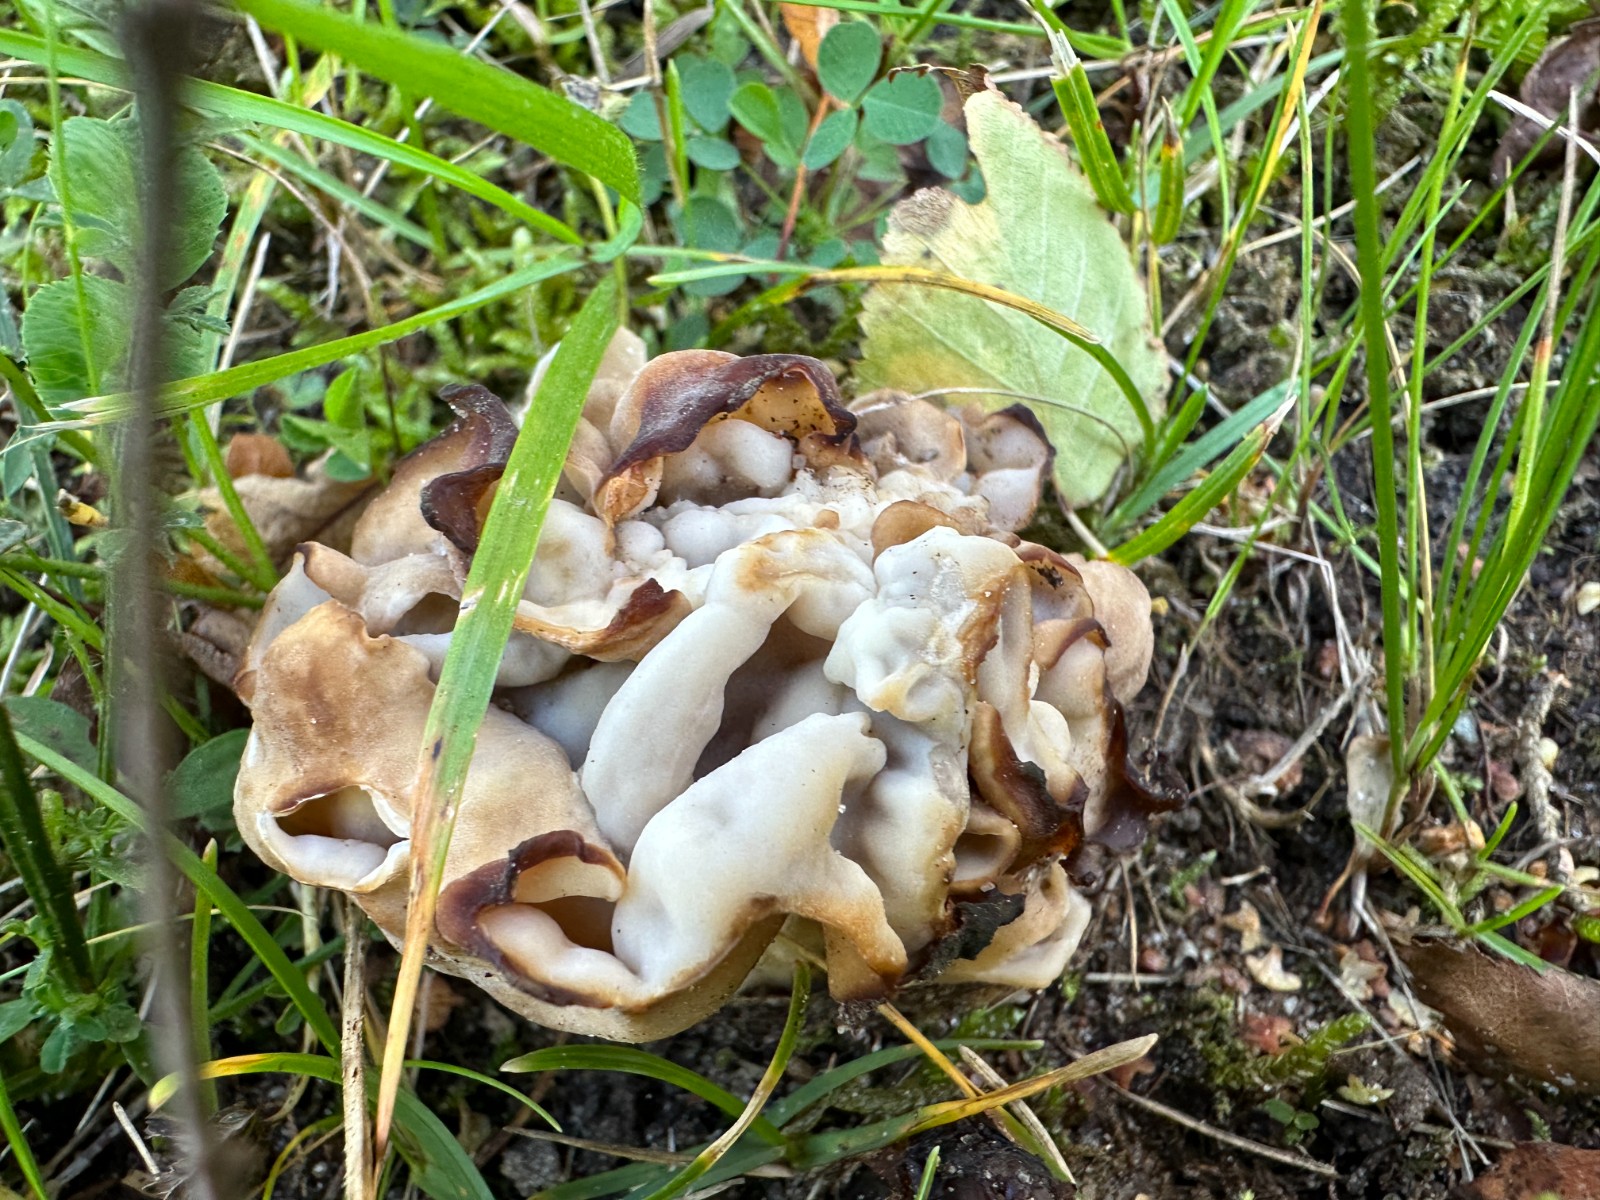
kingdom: Fungi
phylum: Ascomycota
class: Pezizomycetes
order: Pezizales
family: Helvellaceae
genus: Helvella
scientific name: Helvella crispa
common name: kruset foldhat
